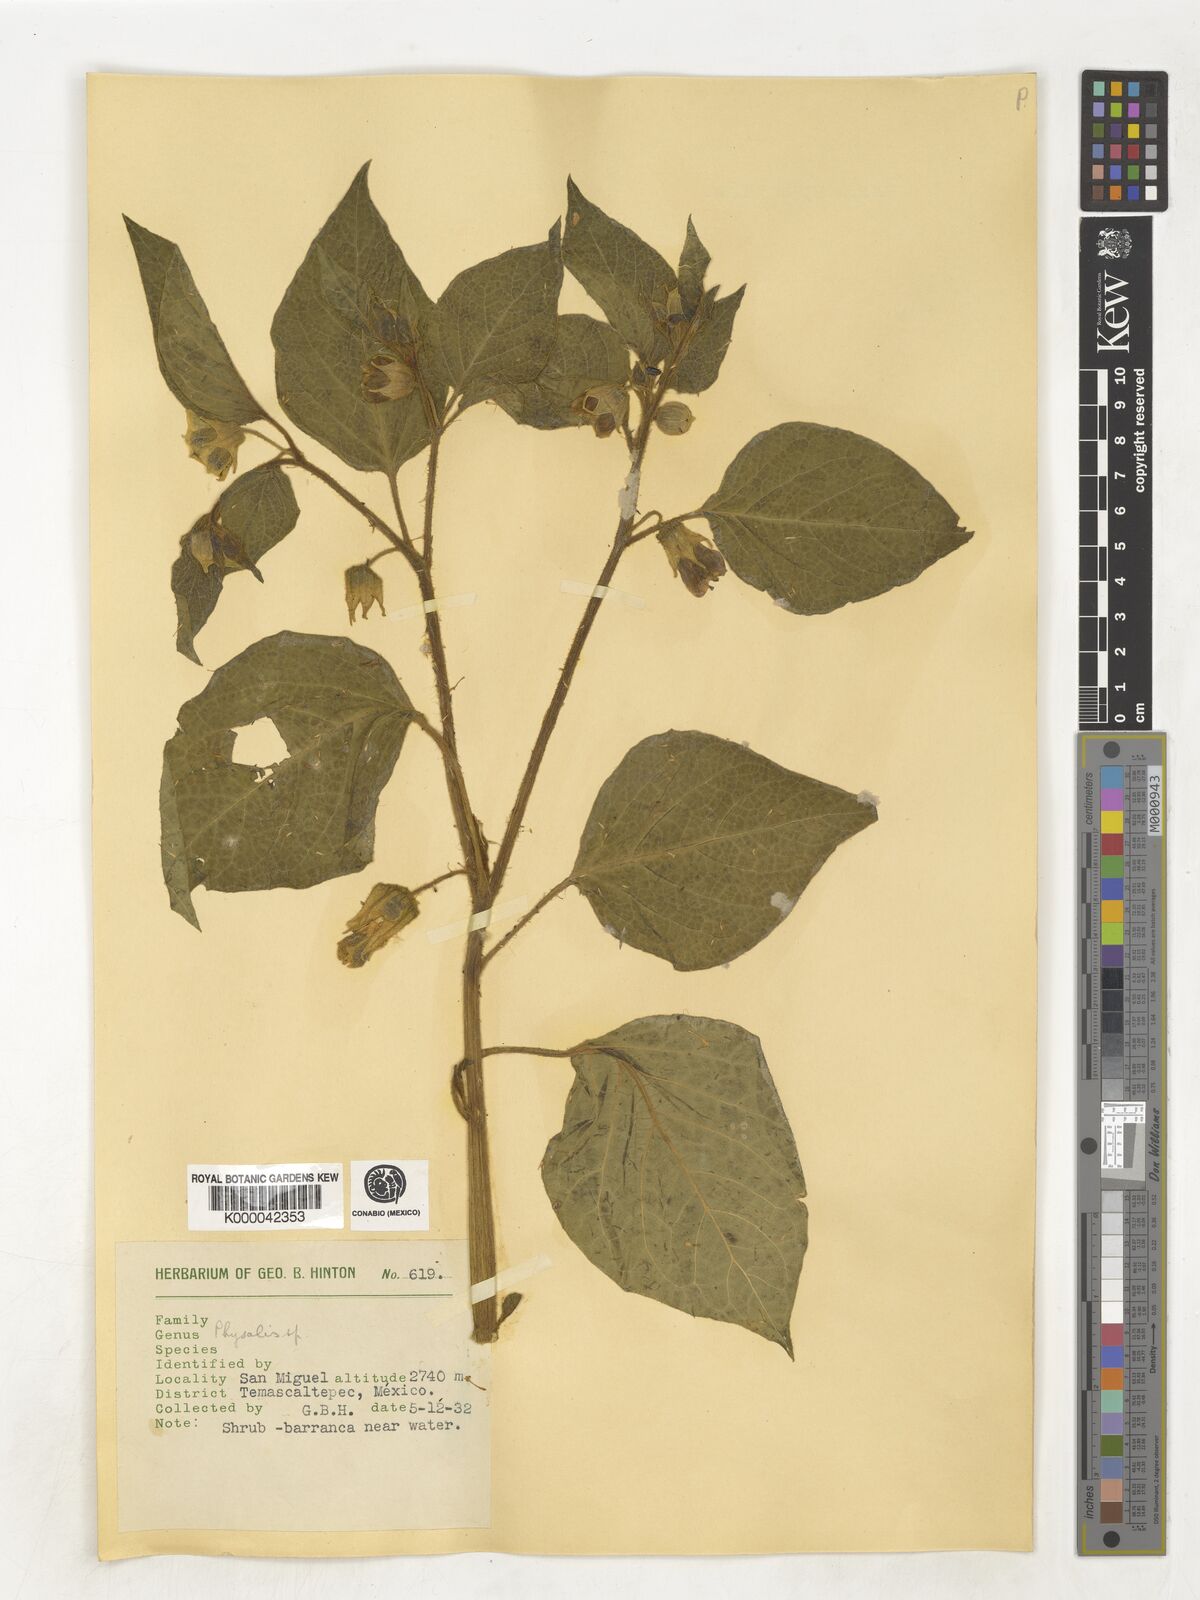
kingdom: Plantae
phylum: Tracheophyta
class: Magnoliopsida
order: Solanales
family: Solanaceae
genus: Physalis
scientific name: Physalis
